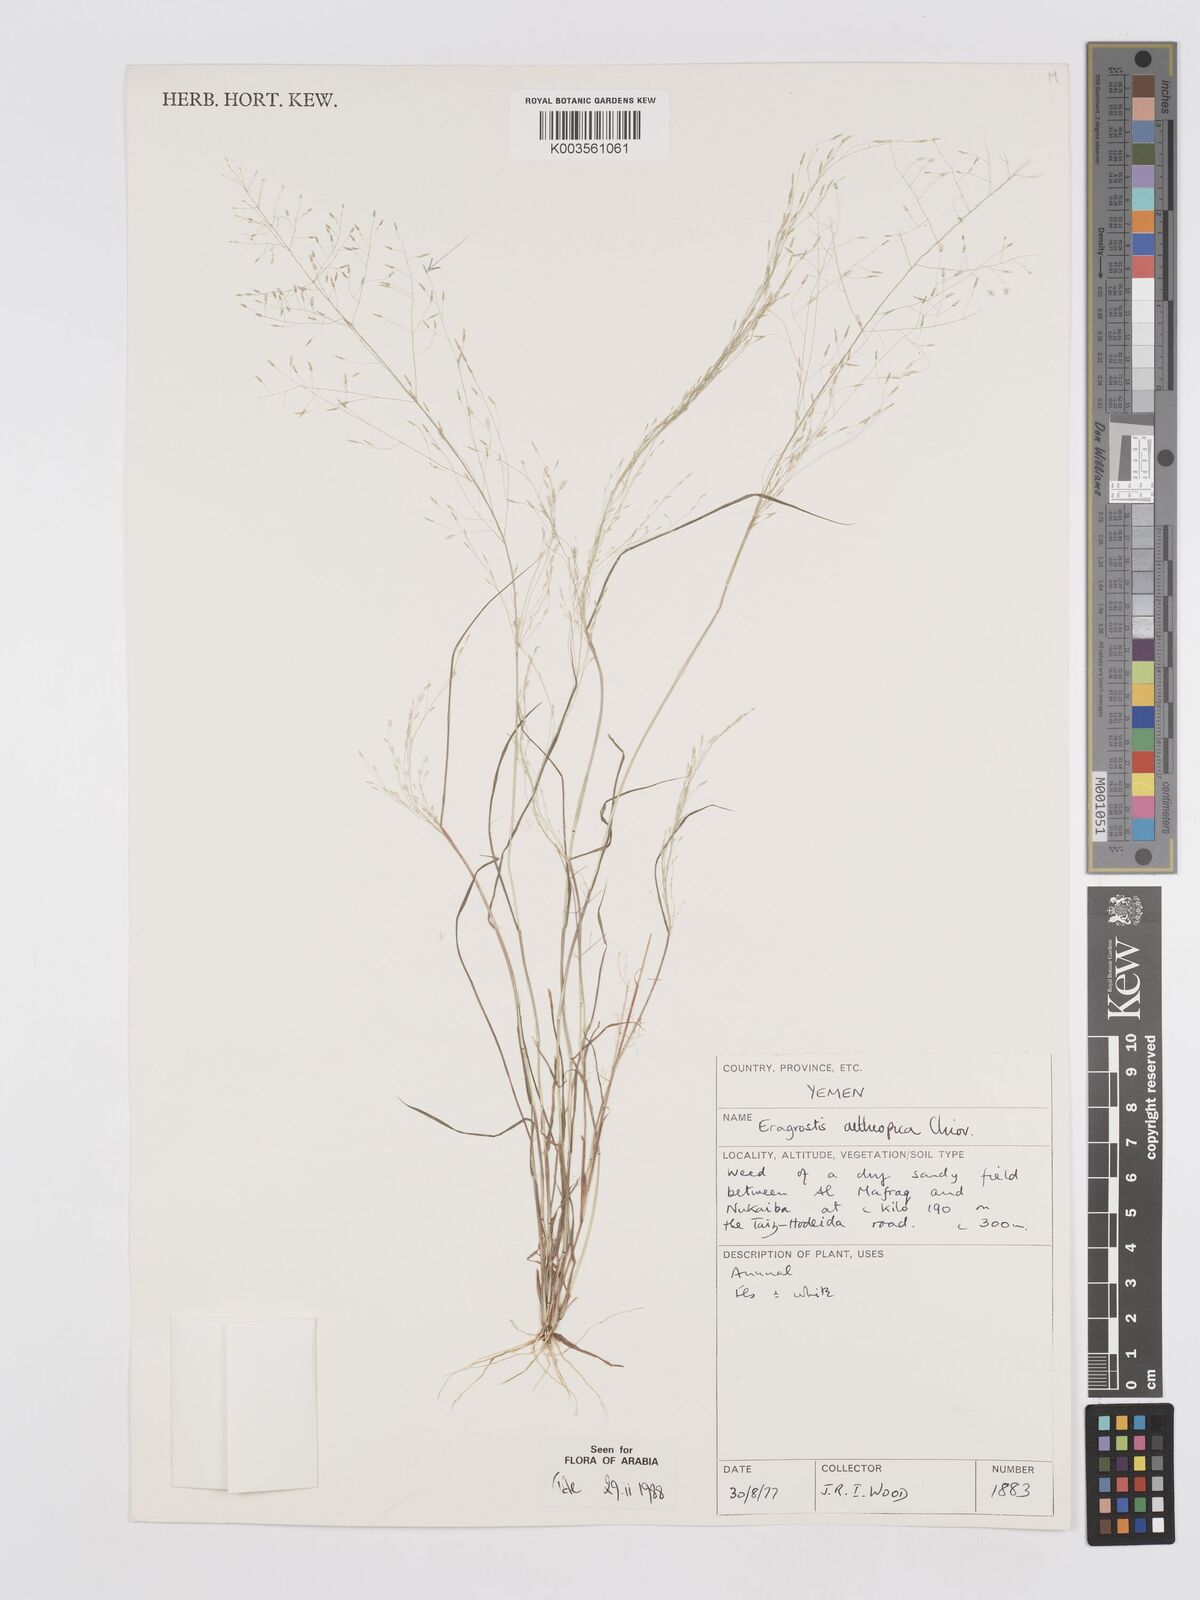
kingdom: Plantae
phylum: Tracheophyta
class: Liliopsida
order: Poales
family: Poaceae
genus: Eragrostis
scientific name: Eragrostis aethiopica
